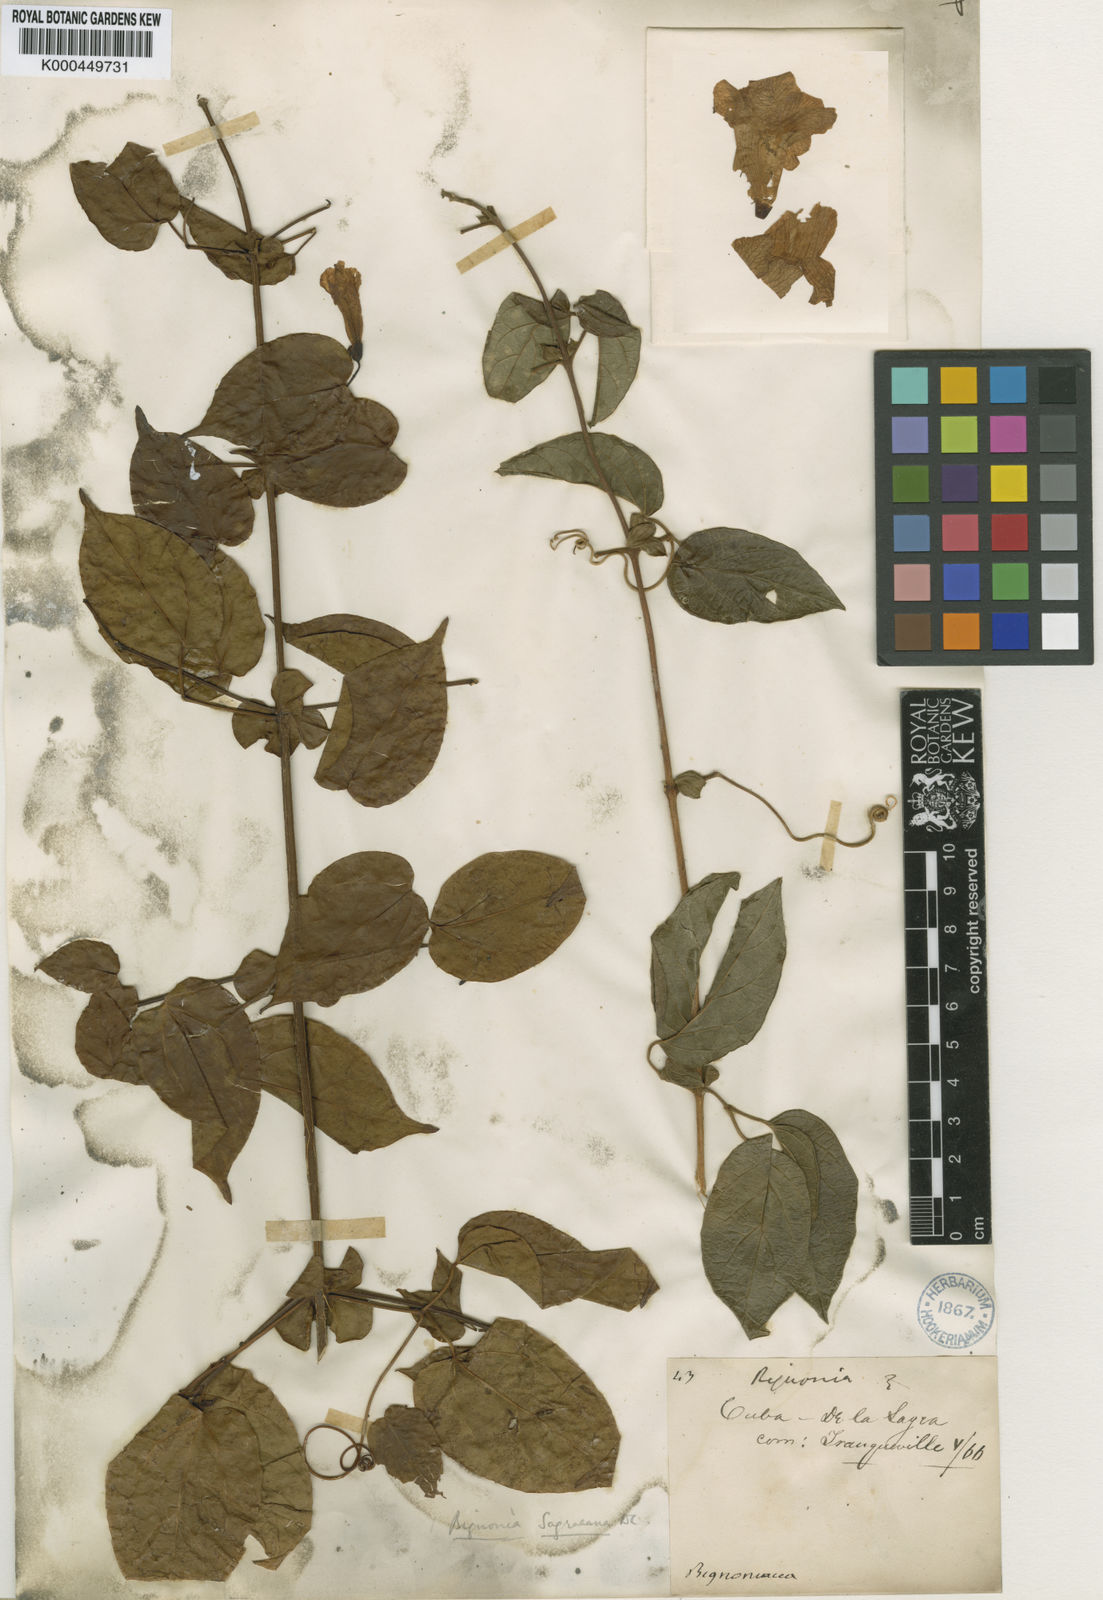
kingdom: Plantae
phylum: Tracheophyta
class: Magnoliopsida
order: Lamiales
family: Bignoniaceae
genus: Bignonia
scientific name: Bignonia diversifolia
